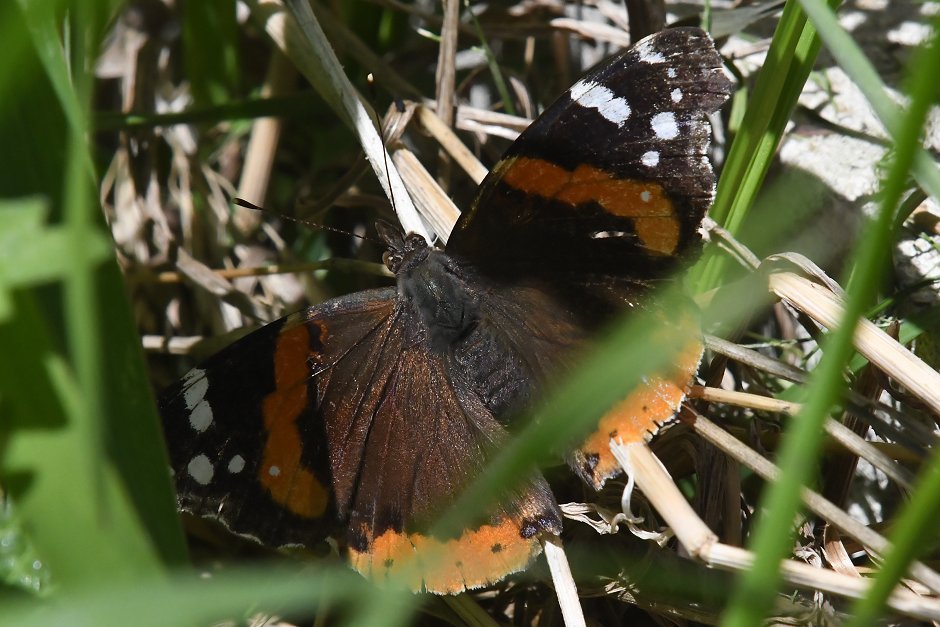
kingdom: Animalia
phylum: Arthropoda
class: Insecta
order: Lepidoptera
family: Nymphalidae
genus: Vanessa
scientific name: Vanessa atalanta
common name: Red Admiral
